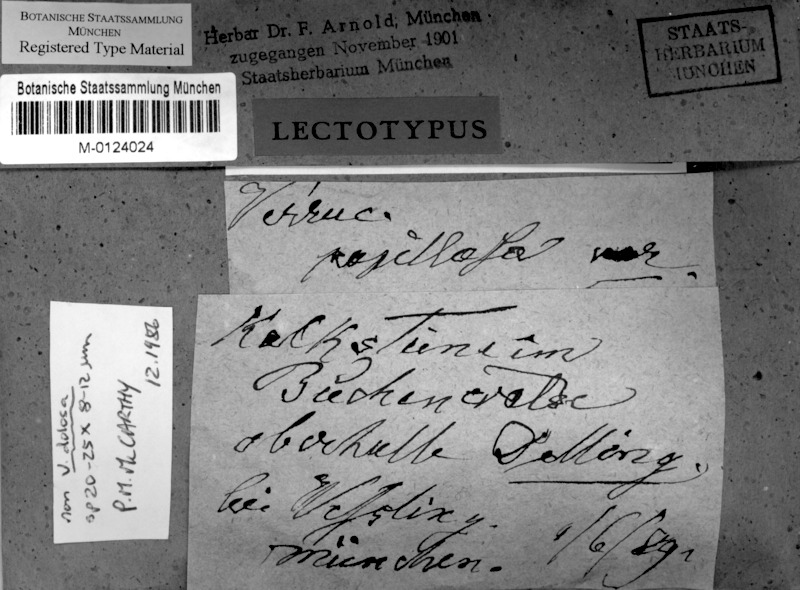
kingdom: Fungi
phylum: Ascomycota
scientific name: Ascomycota
